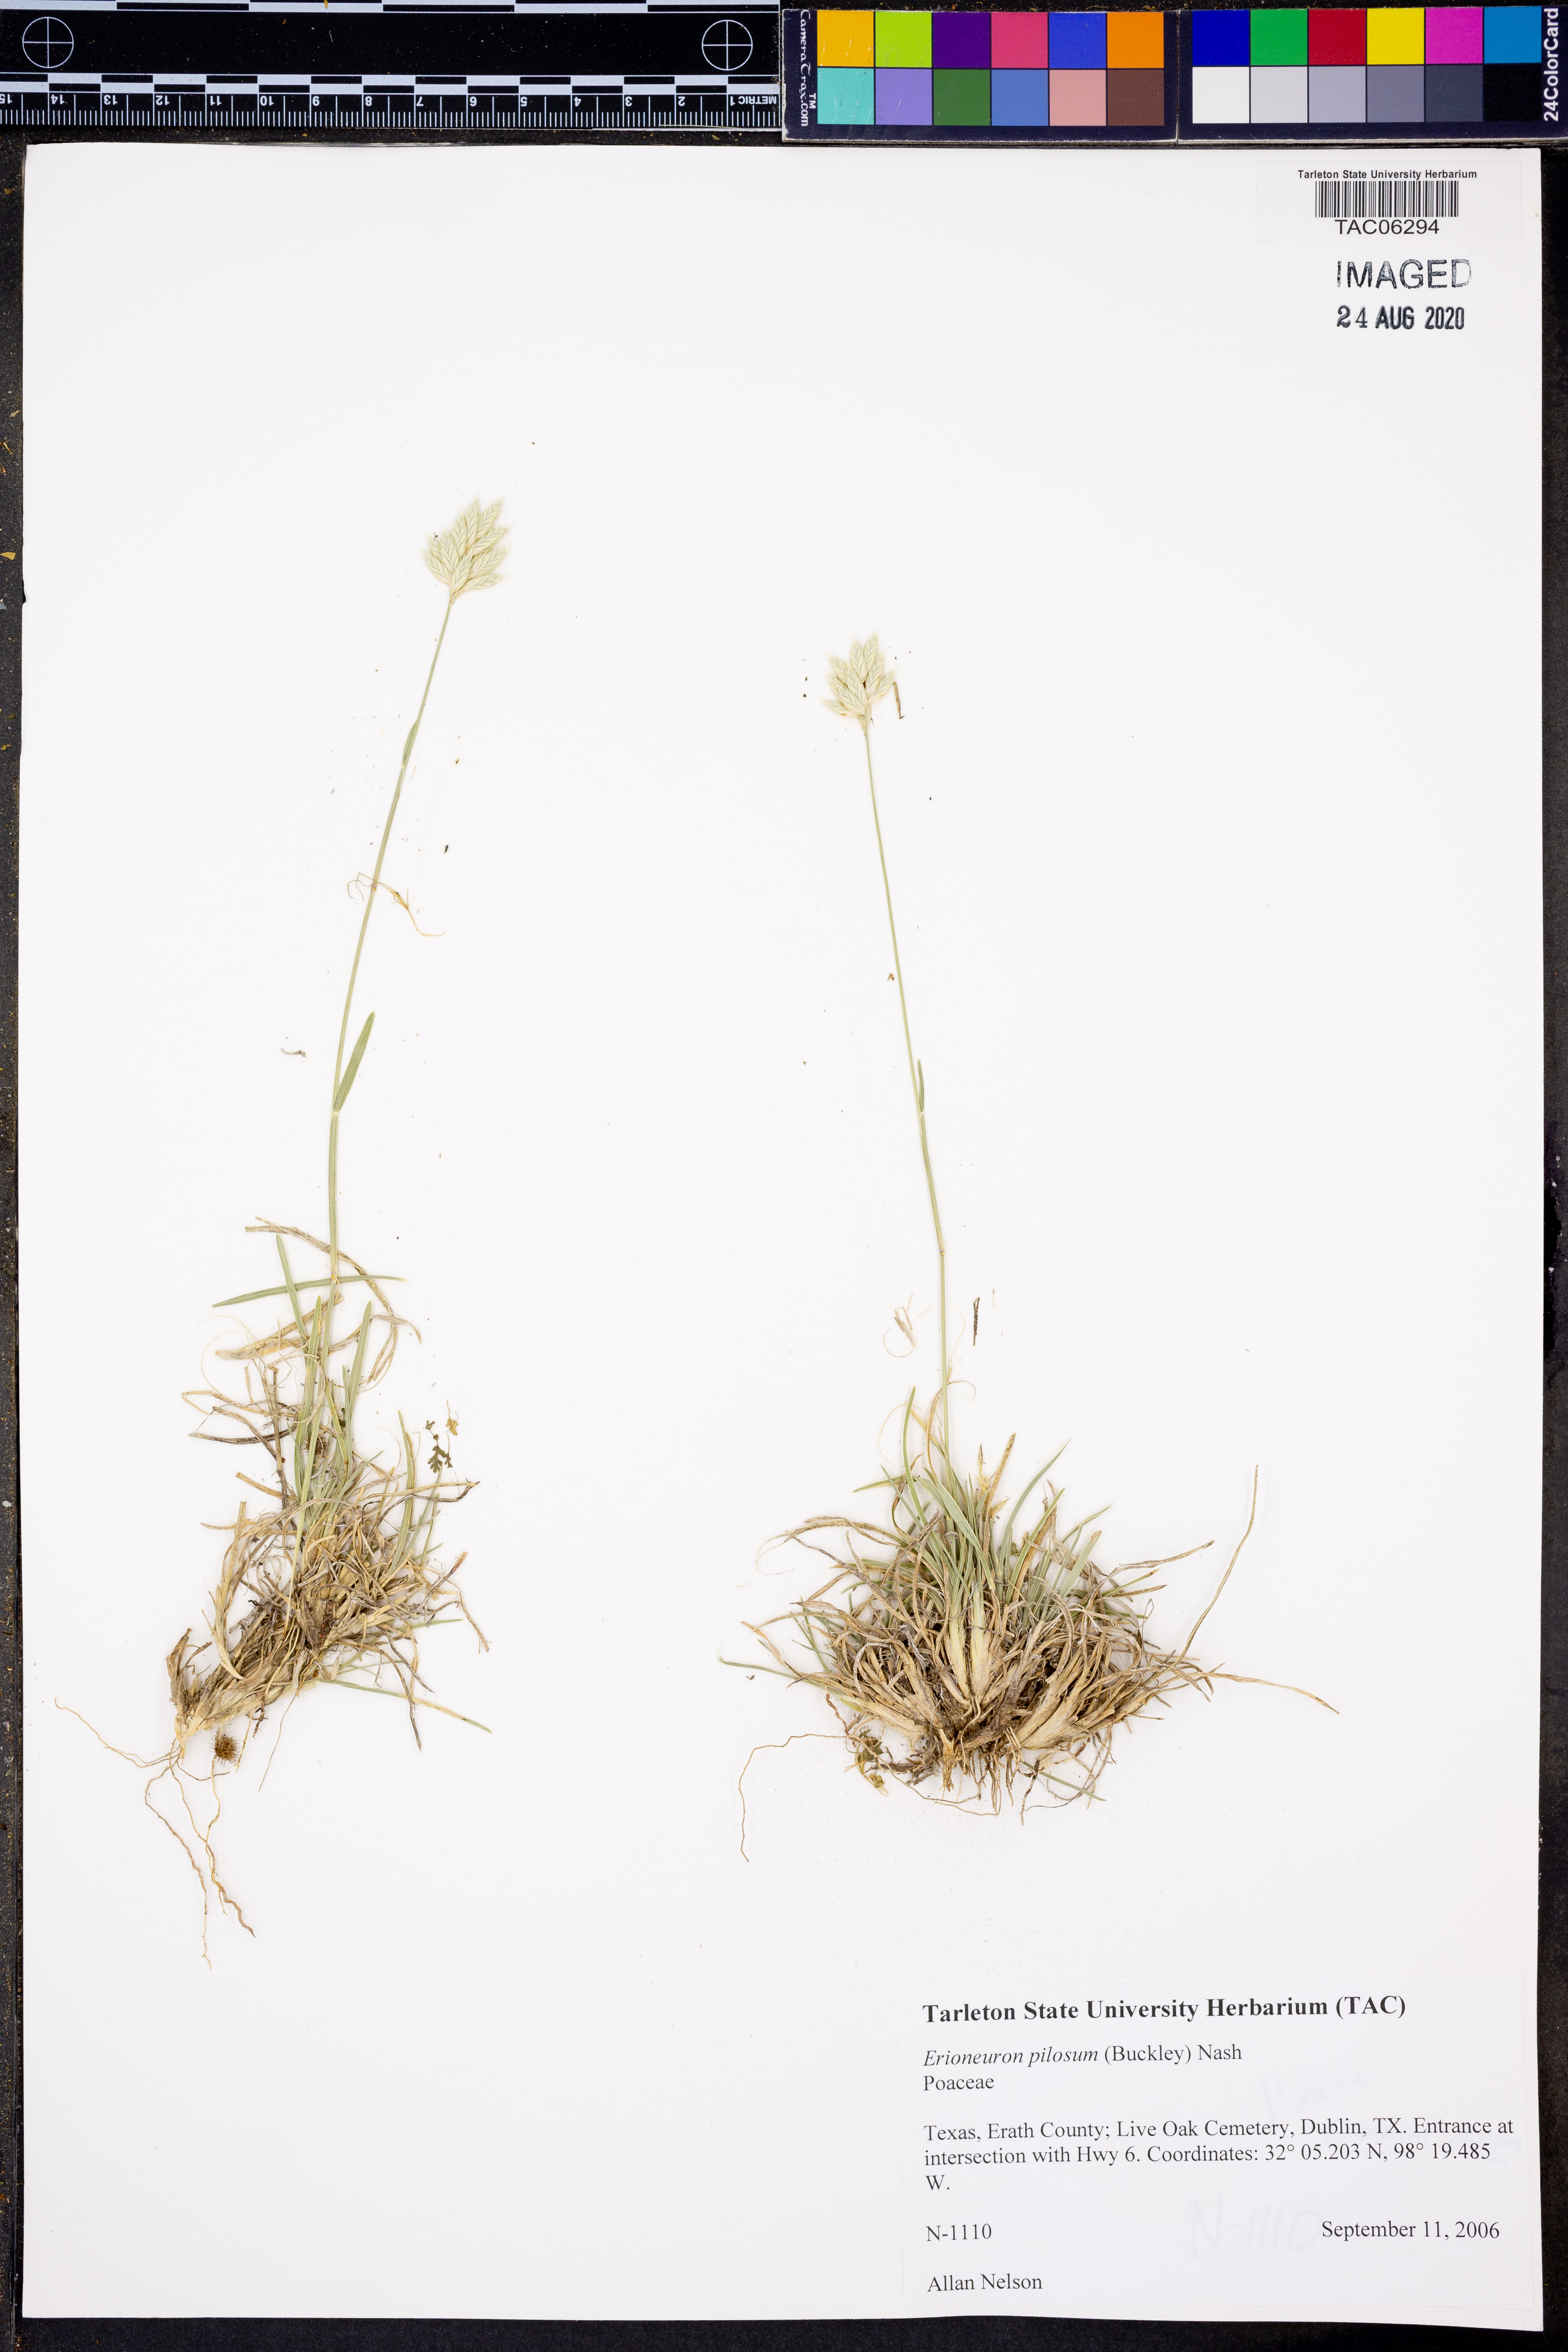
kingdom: Plantae
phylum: Tracheophyta
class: Liliopsida
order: Poales
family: Poaceae
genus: Erioneuron
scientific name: Erioneuron pilosum
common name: Hairy woolly grass
